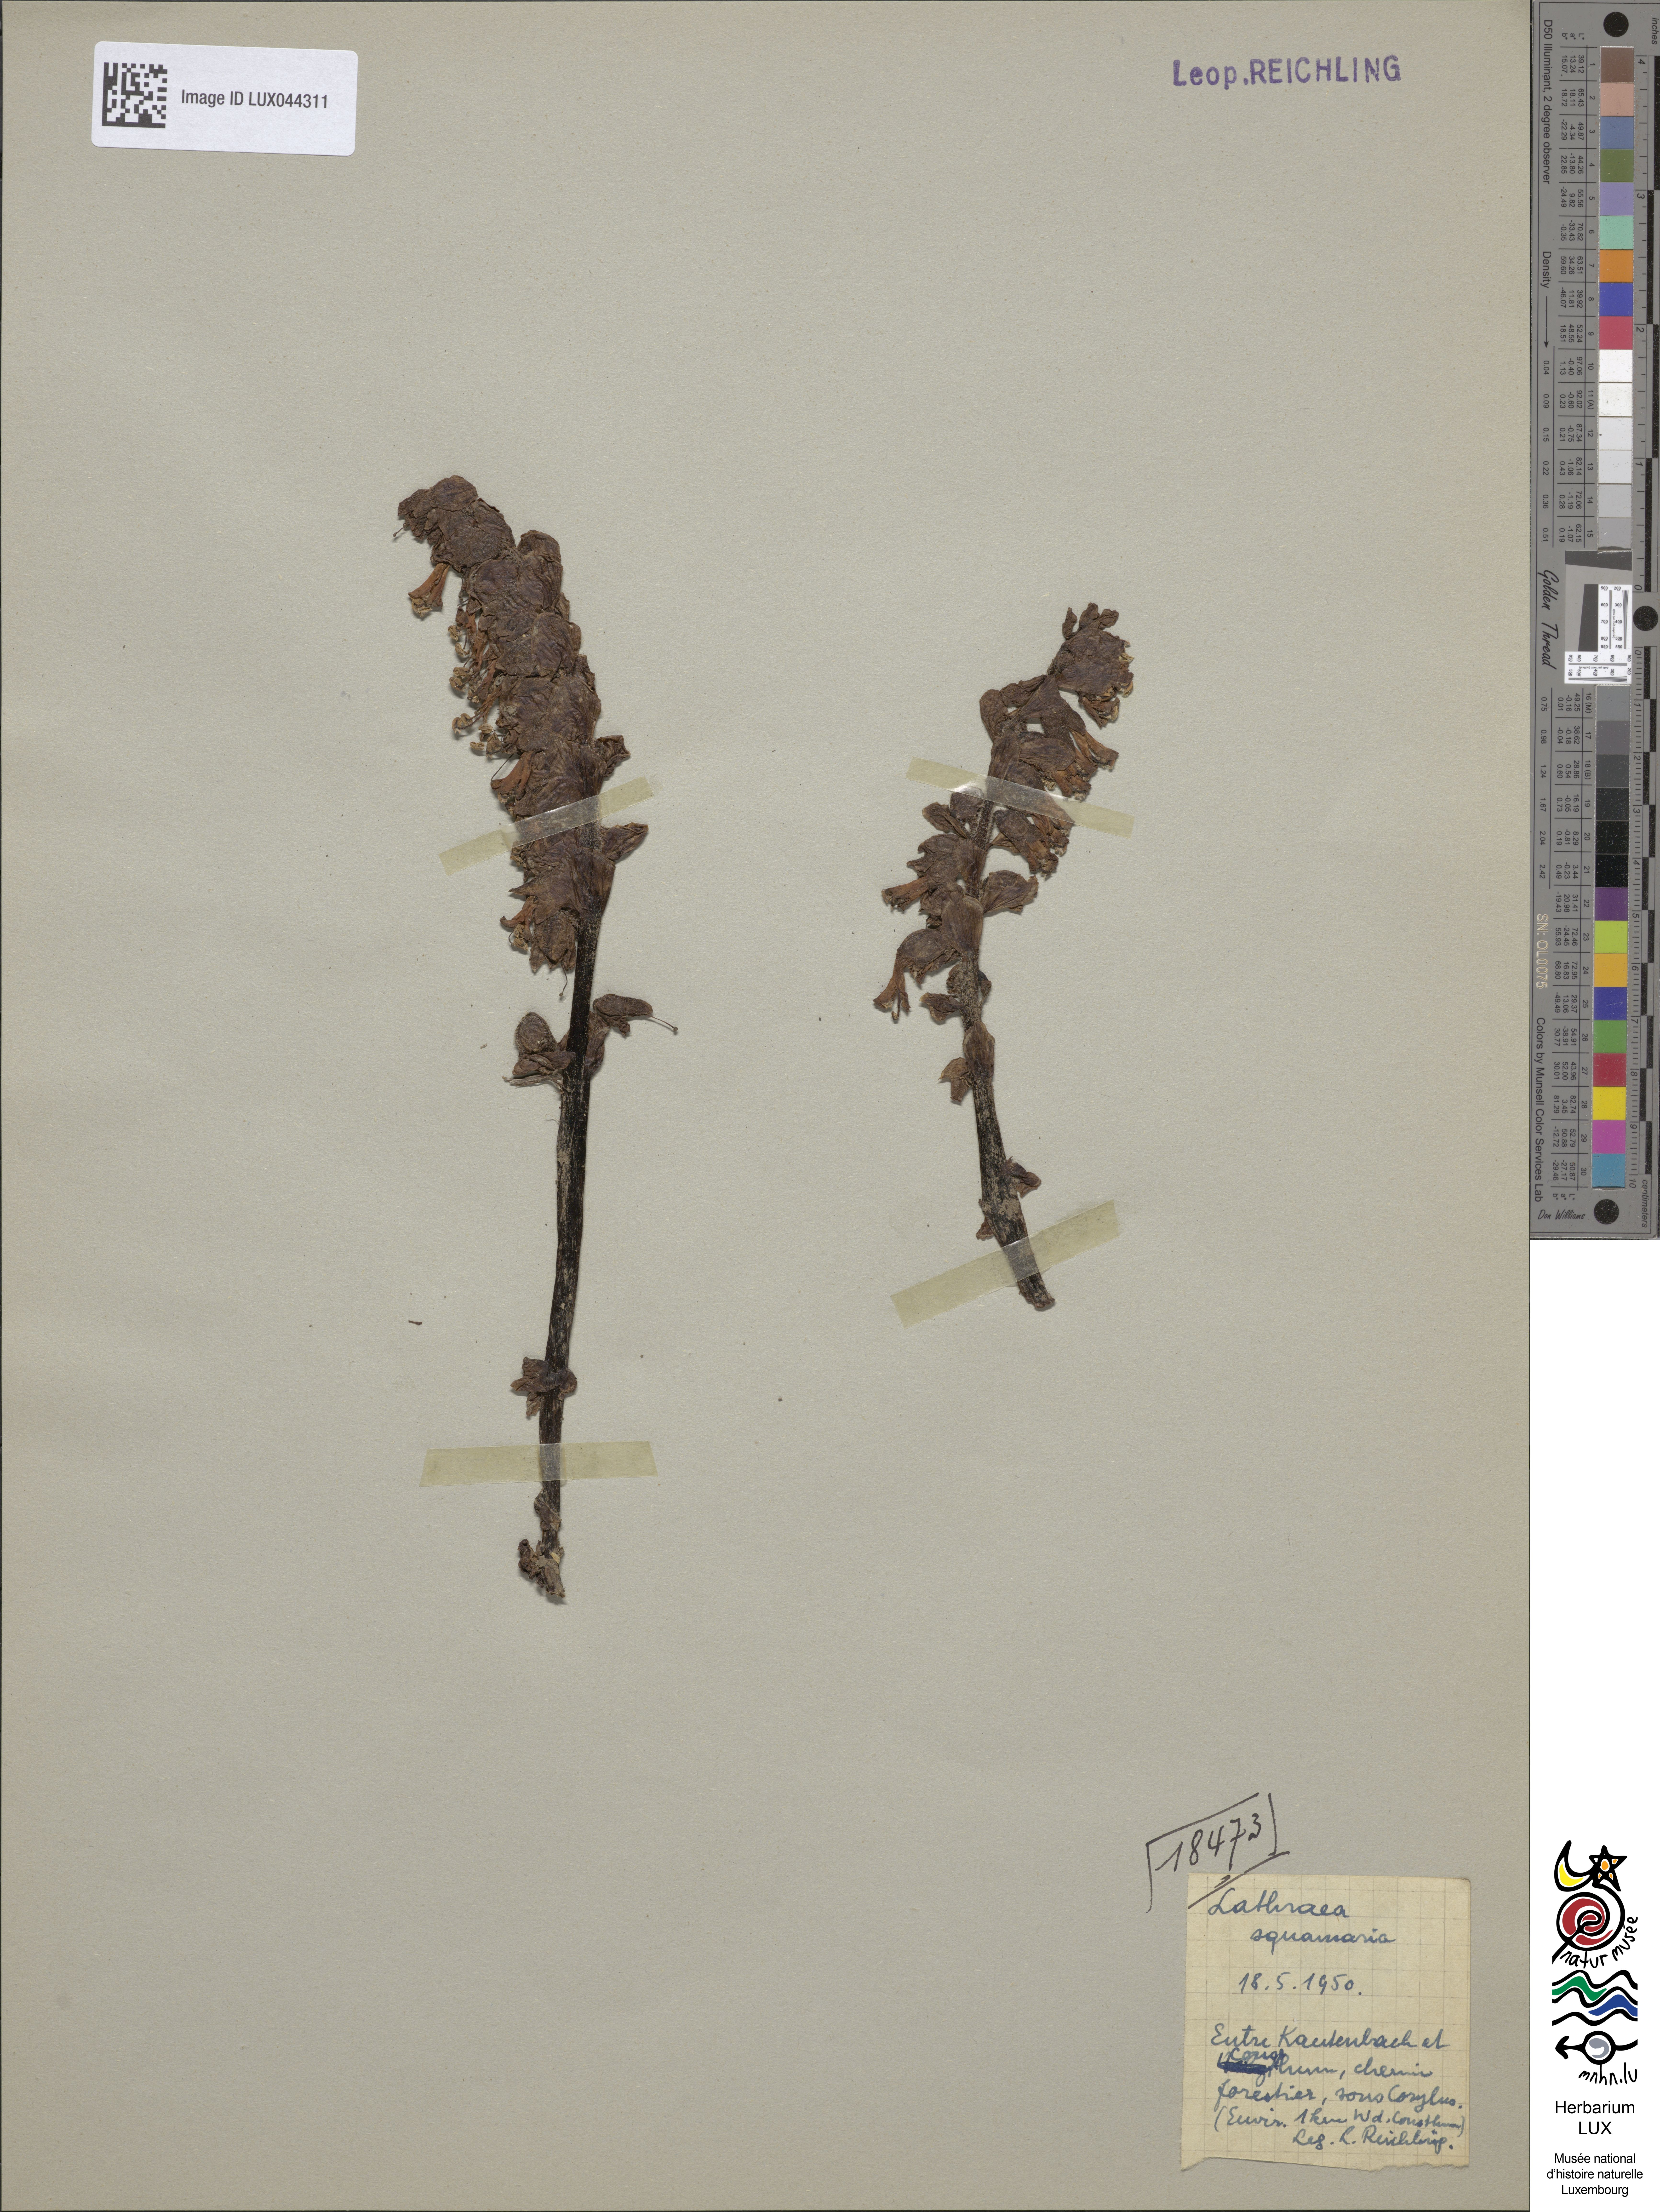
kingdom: Plantae
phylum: Tracheophyta
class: Magnoliopsida
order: Lamiales
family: Orobanchaceae
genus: Lathraea
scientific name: Lathraea squamaria
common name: Toothwort
